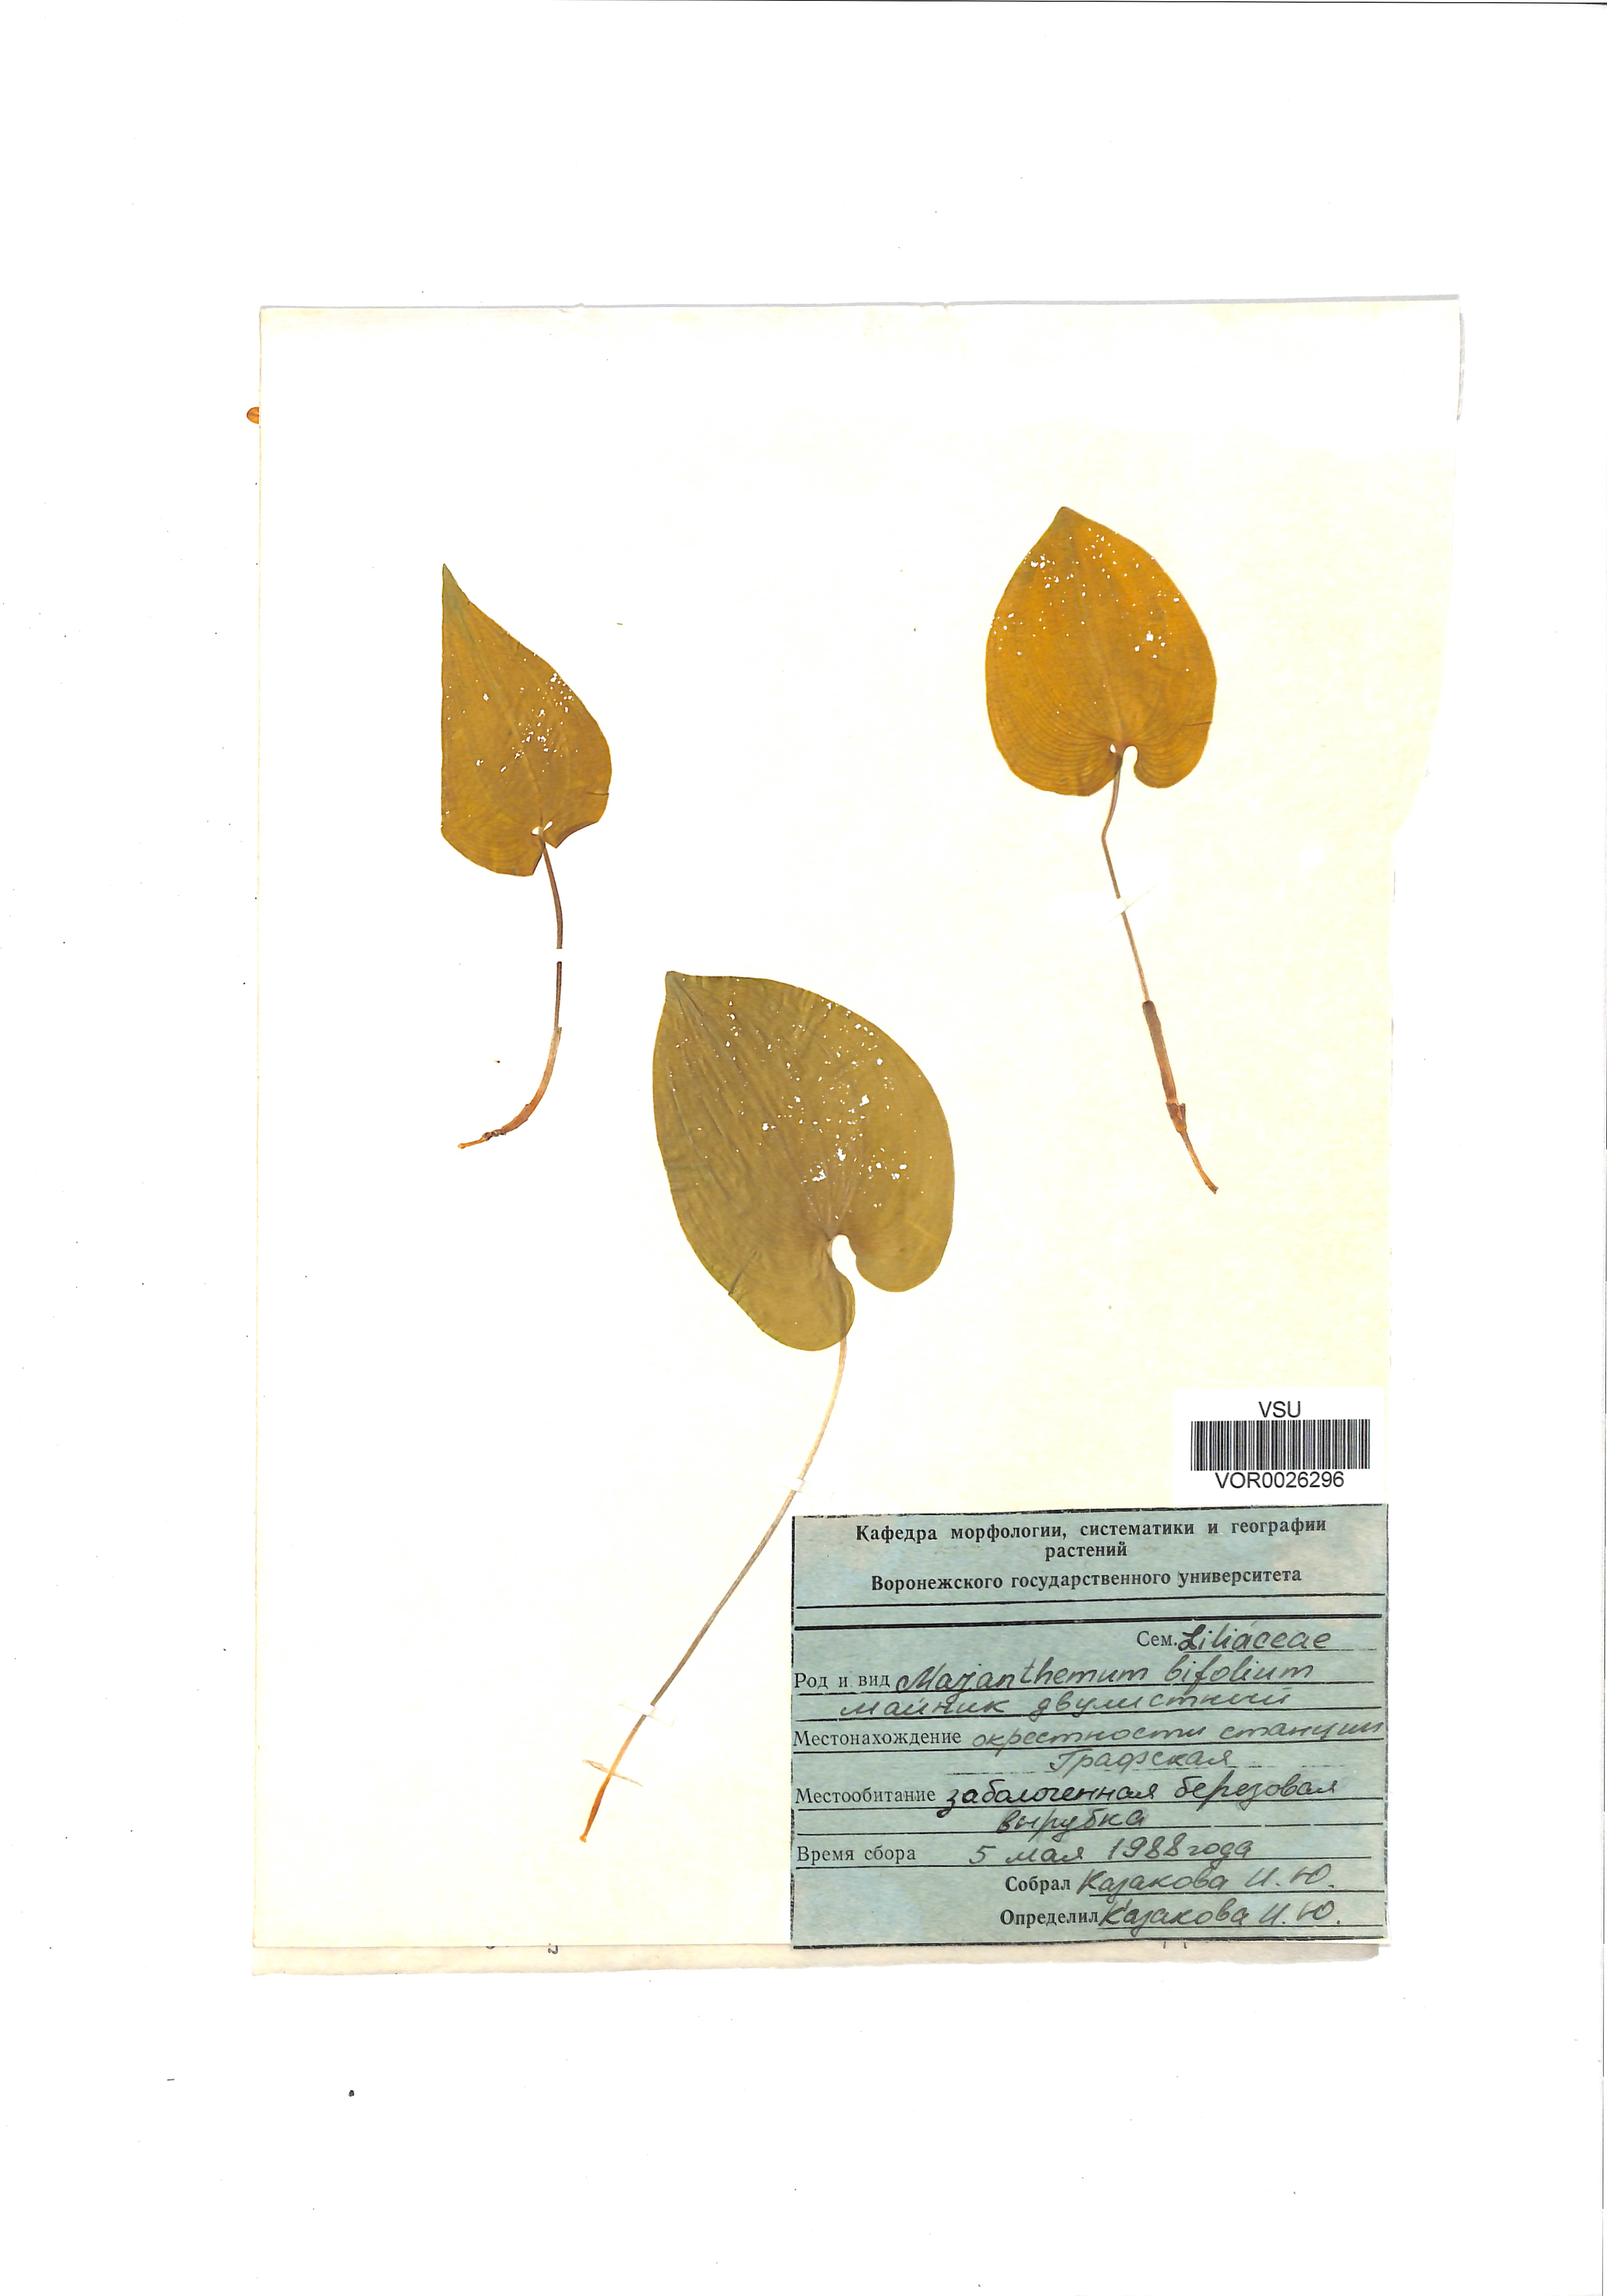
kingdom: Plantae
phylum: Tracheophyta
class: Liliopsida
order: Asparagales
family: Asparagaceae
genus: Maianthemum
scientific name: Maianthemum bifolium
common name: May lily
